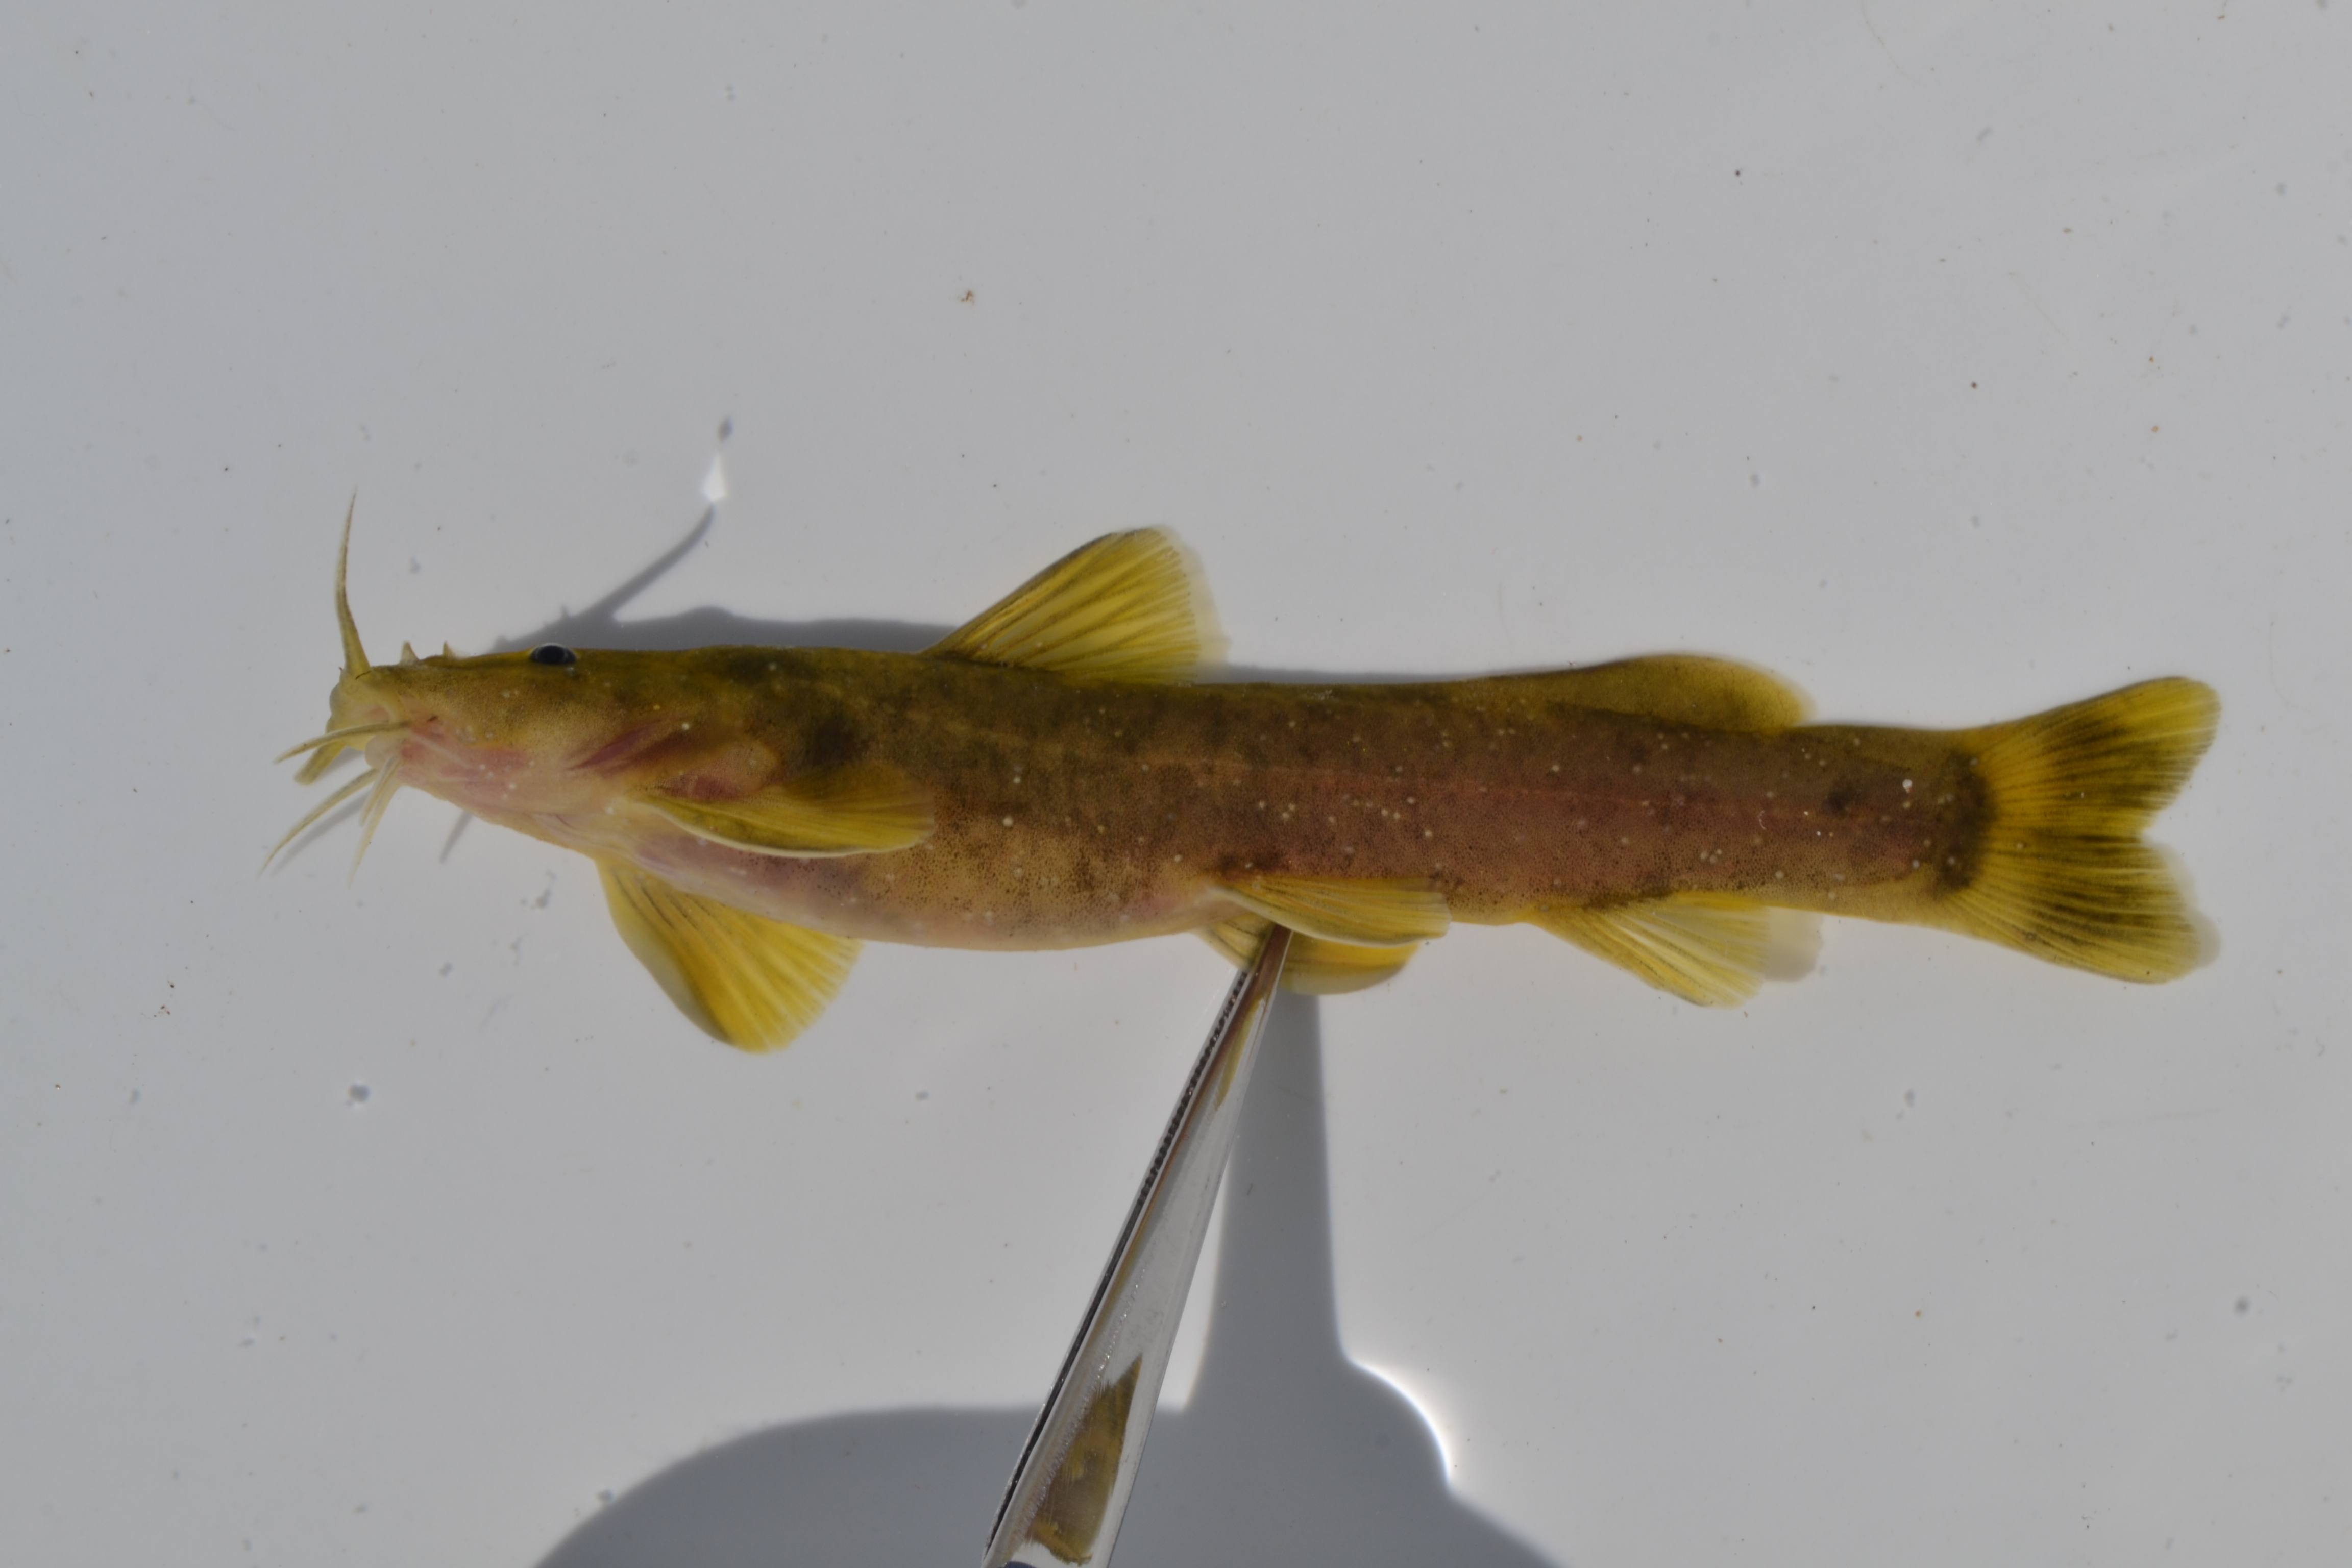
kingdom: Animalia
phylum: Chordata
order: Siluriformes
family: Amphiliidae
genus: Amphilius
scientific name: Amphilius
